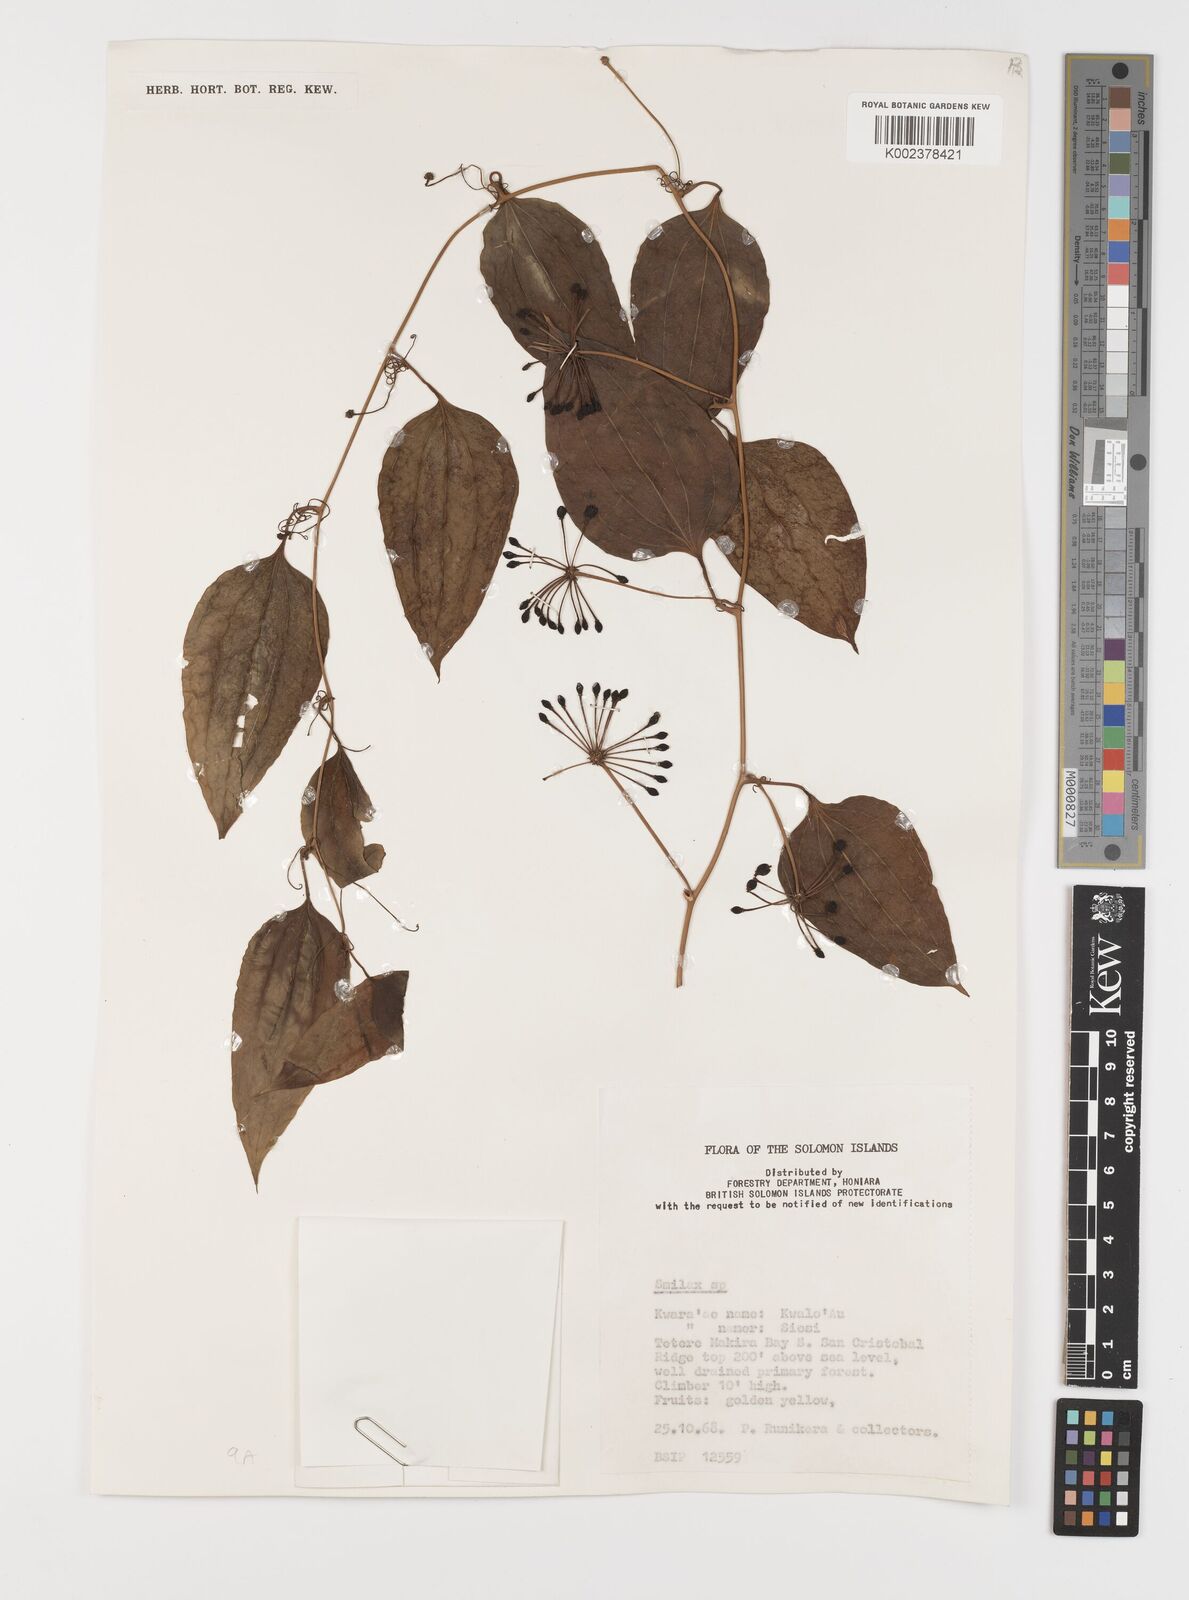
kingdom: Plantae
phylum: Tracheophyta
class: Liliopsida
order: Liliales
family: Smilacaceae
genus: Smilax
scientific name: Smilax
